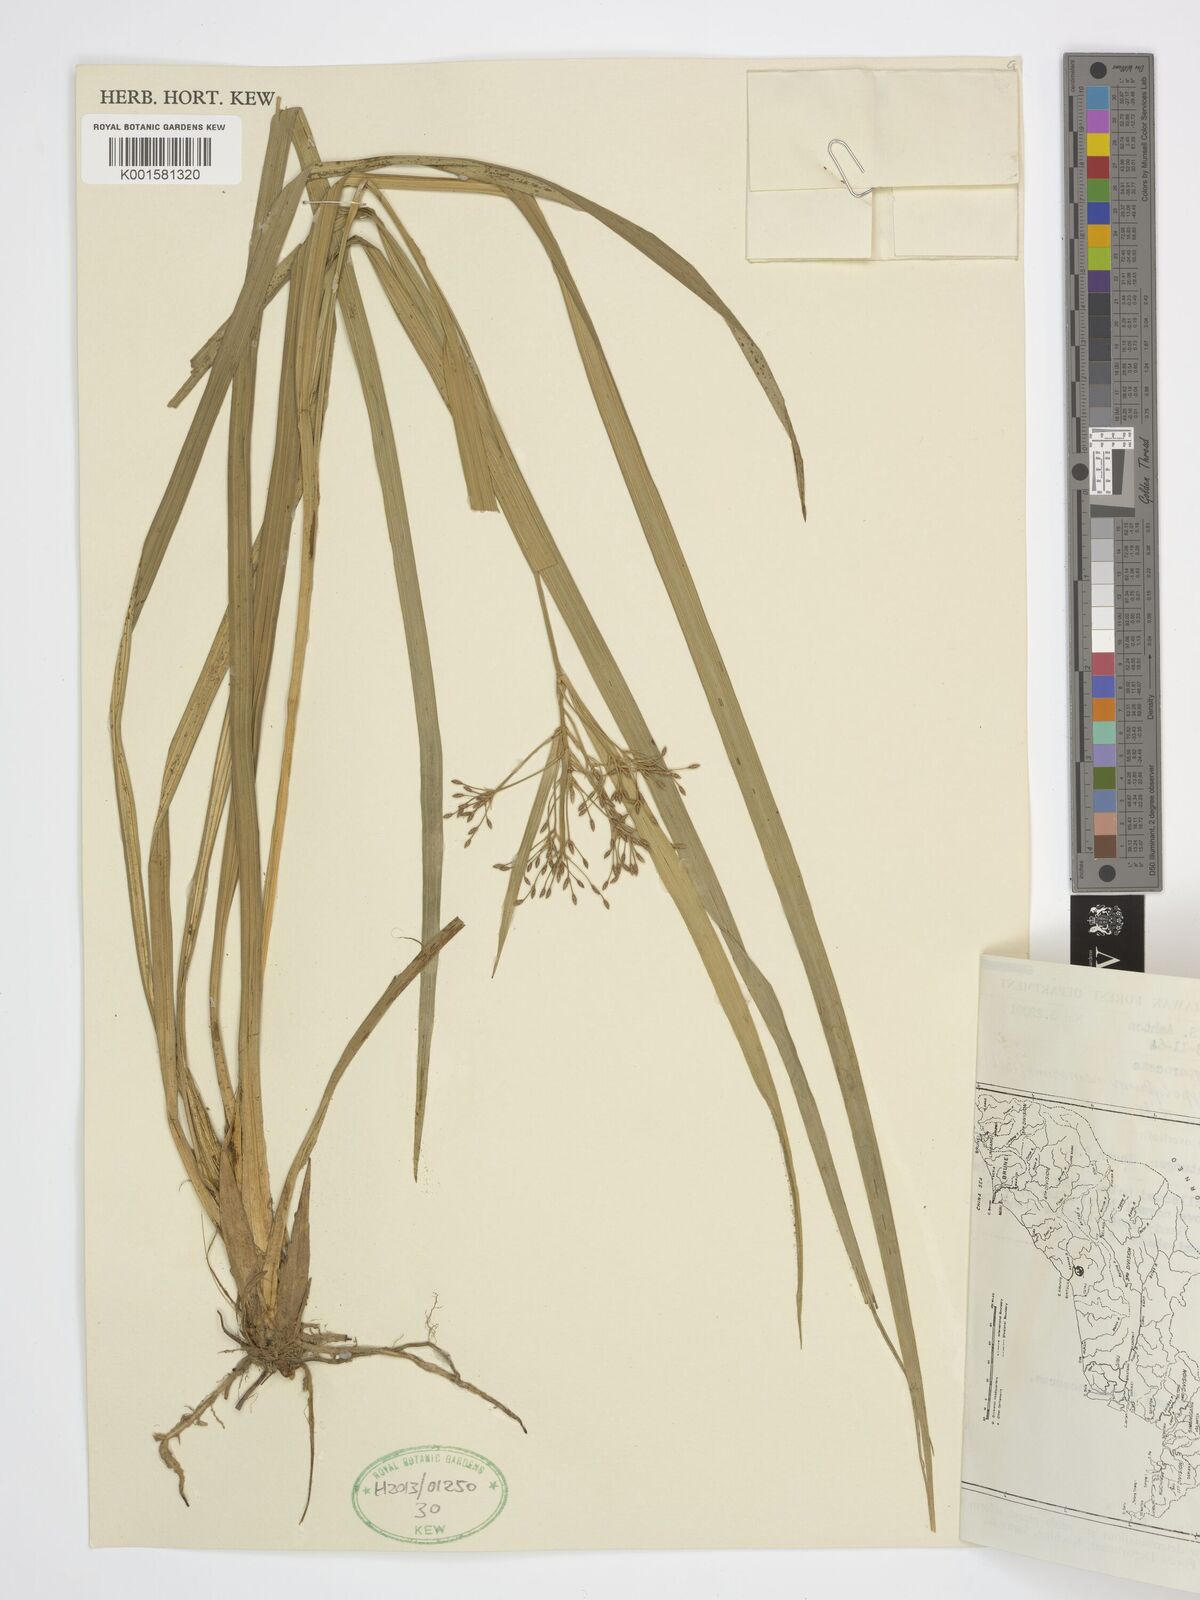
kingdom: Plantae
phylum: Tracheophyta
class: Liliopsida
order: Poales
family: Cyperaceae
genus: Hypolytrum
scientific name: Hypolytrum nemorum
